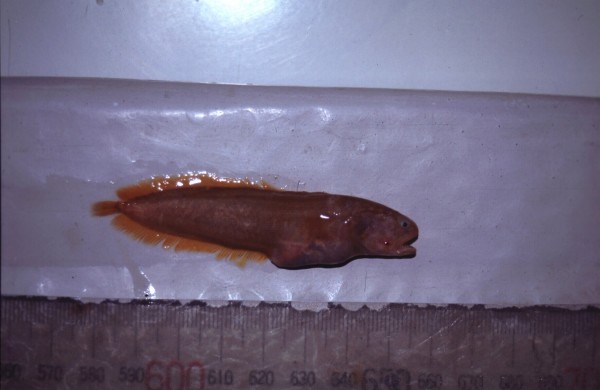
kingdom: Animalia
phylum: Chordata
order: Ophidiiformes
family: Bythitidae
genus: Dinematichthys
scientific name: Dinematichthys iluocoeteoides
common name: Small eye brotula
